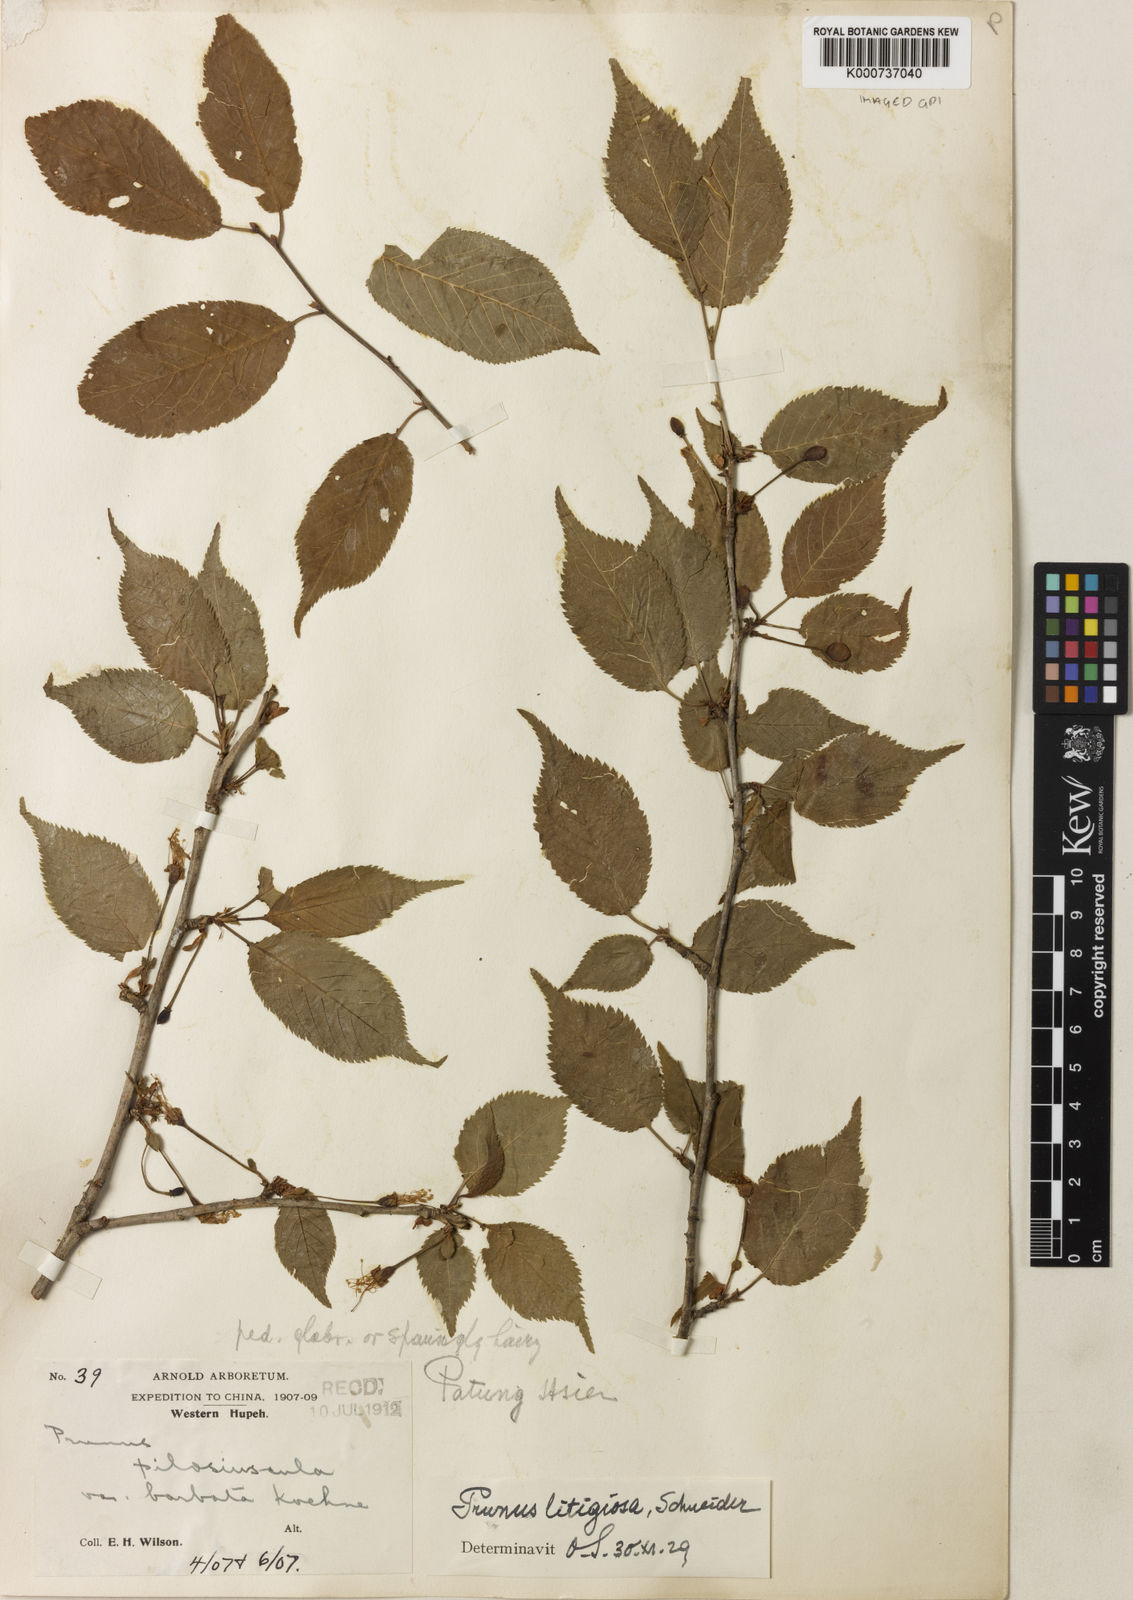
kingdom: Plantae
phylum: Tracheophyta
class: Magnoliopsida
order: Rosales
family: Rosaceae
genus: Prunus
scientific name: Prunus clarofolia
